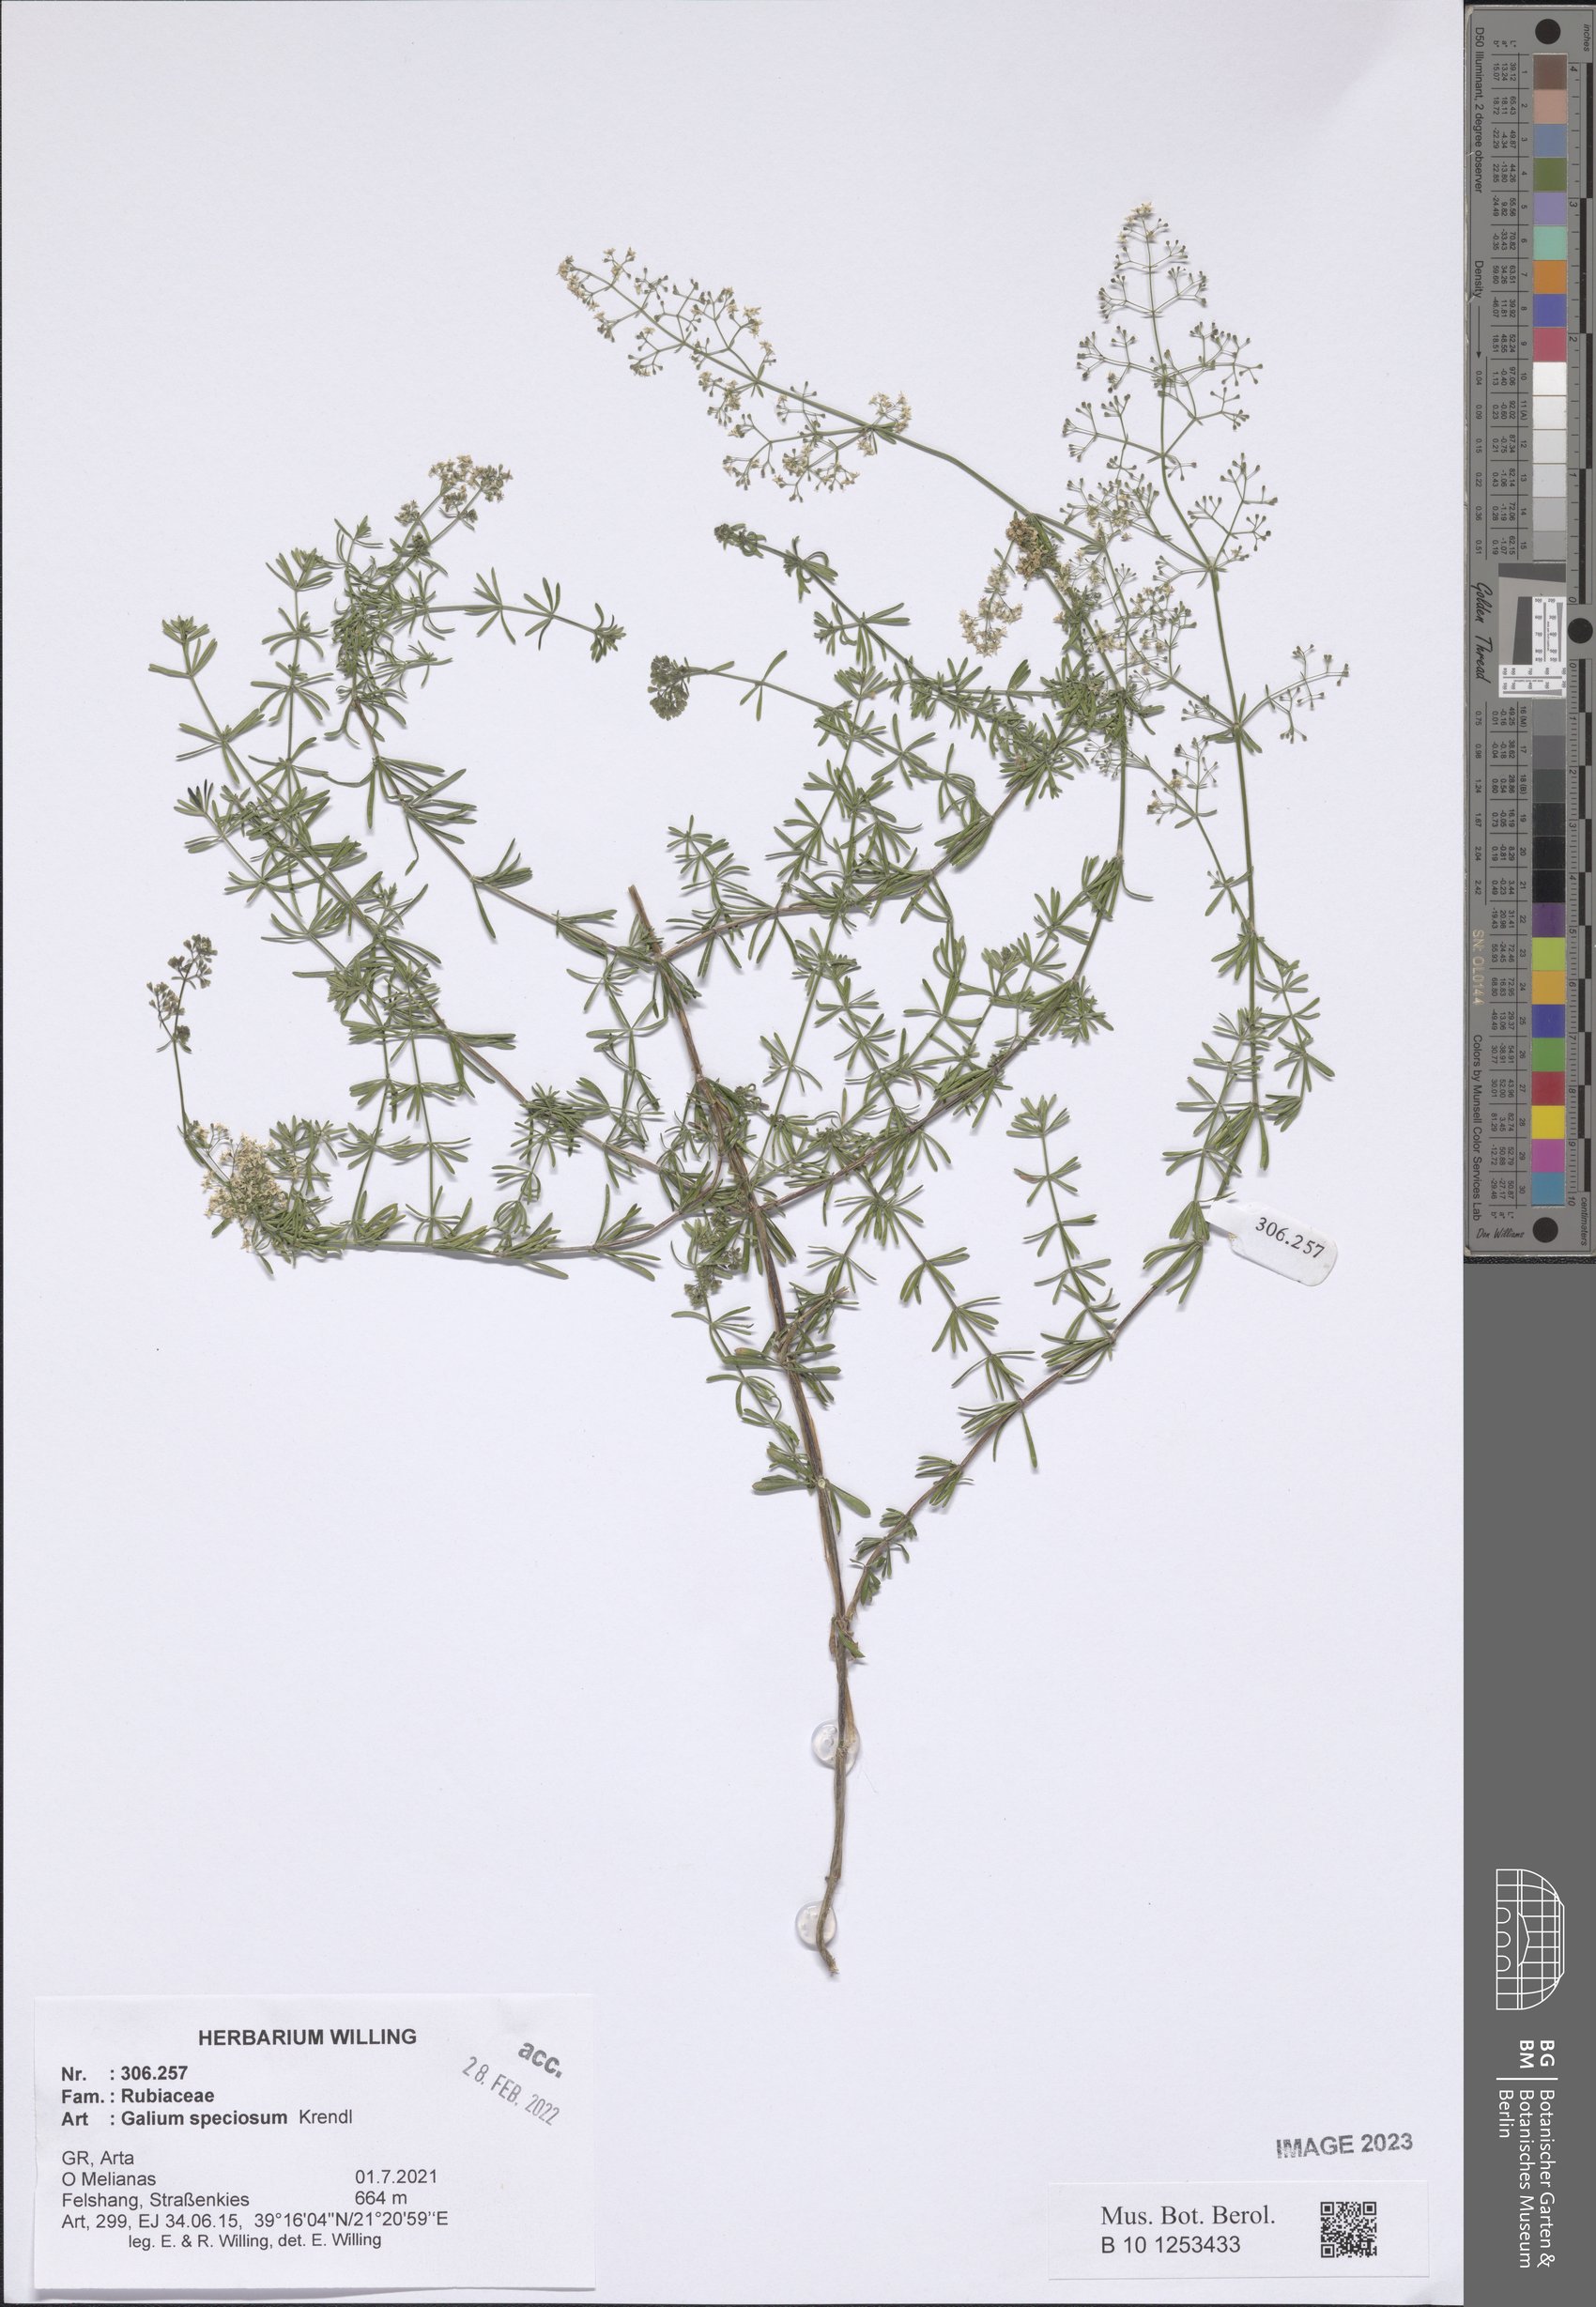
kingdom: Plantae
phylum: Tracheophyta
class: Magnoliopsida
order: Gentianales
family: Rubiaceae
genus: Galium
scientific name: Galium speciosum
